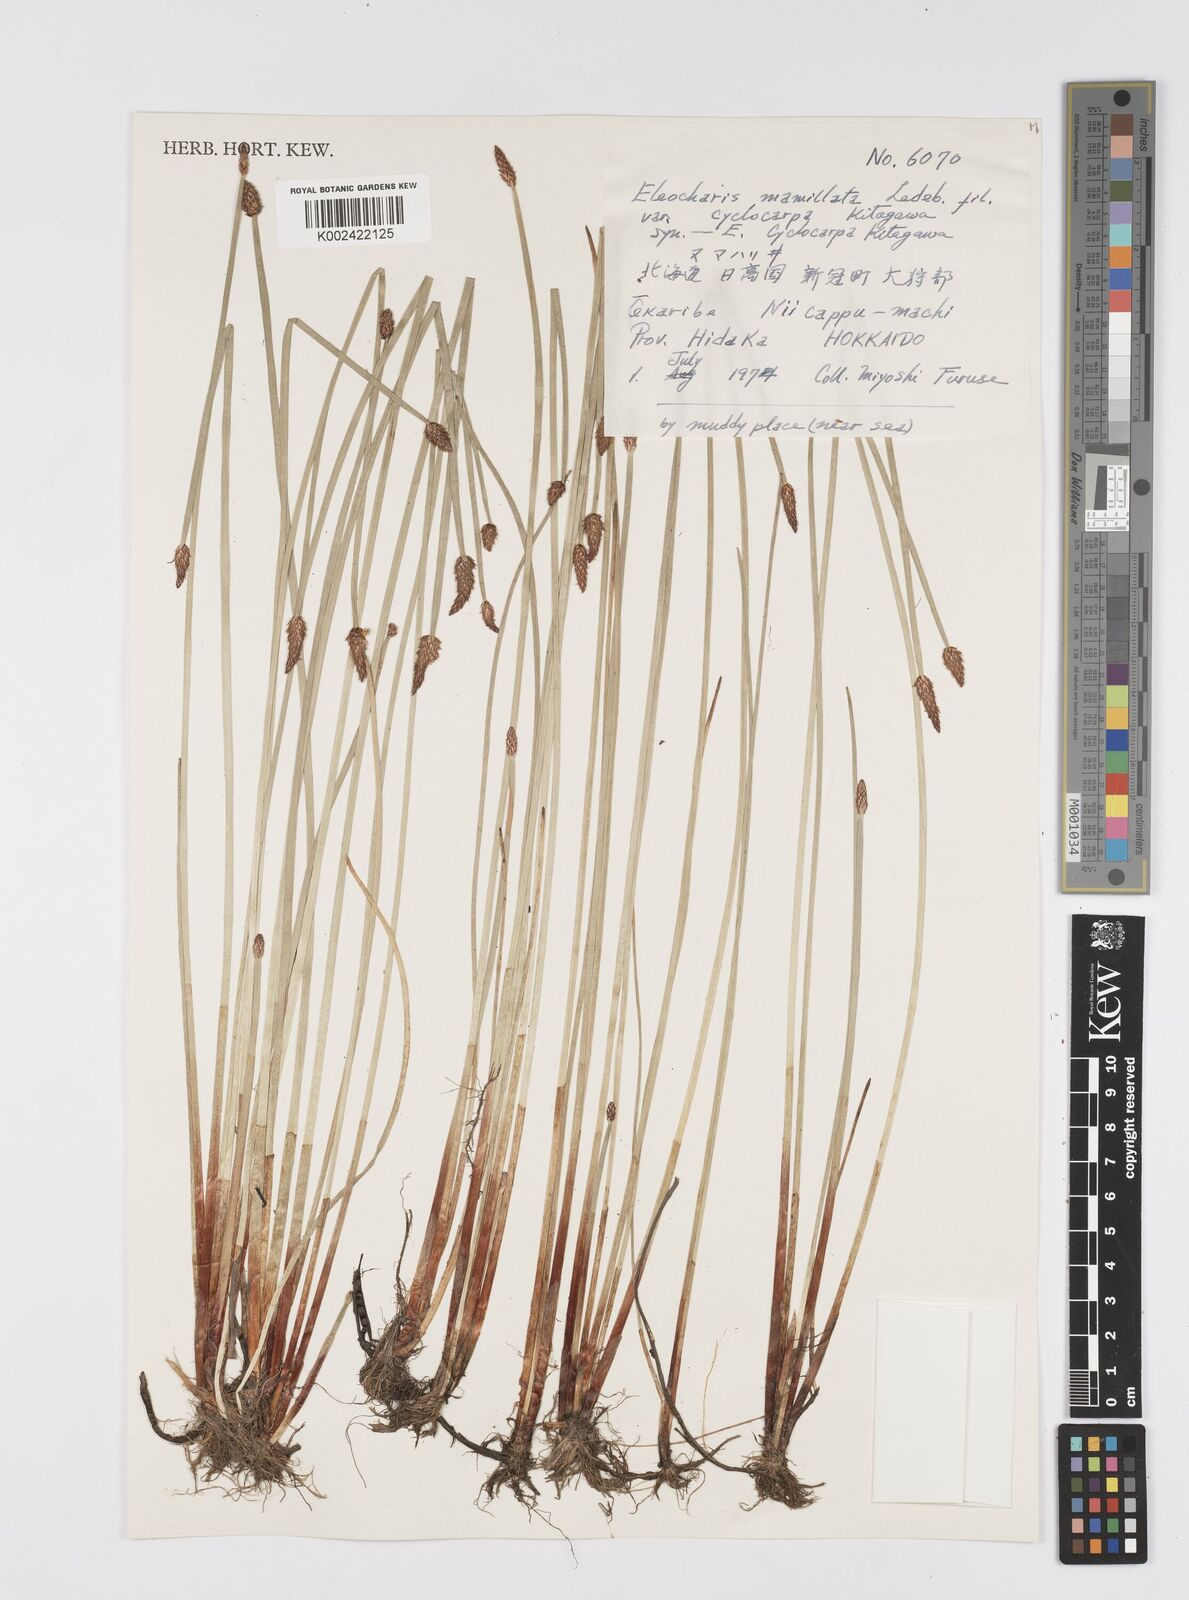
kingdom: Plantae
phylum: Tracheophyta
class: Liliopsida
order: Poales
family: Cyperaceae
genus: Eleocharis
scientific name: Eleocharis mamillata
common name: Northern spike-rush
